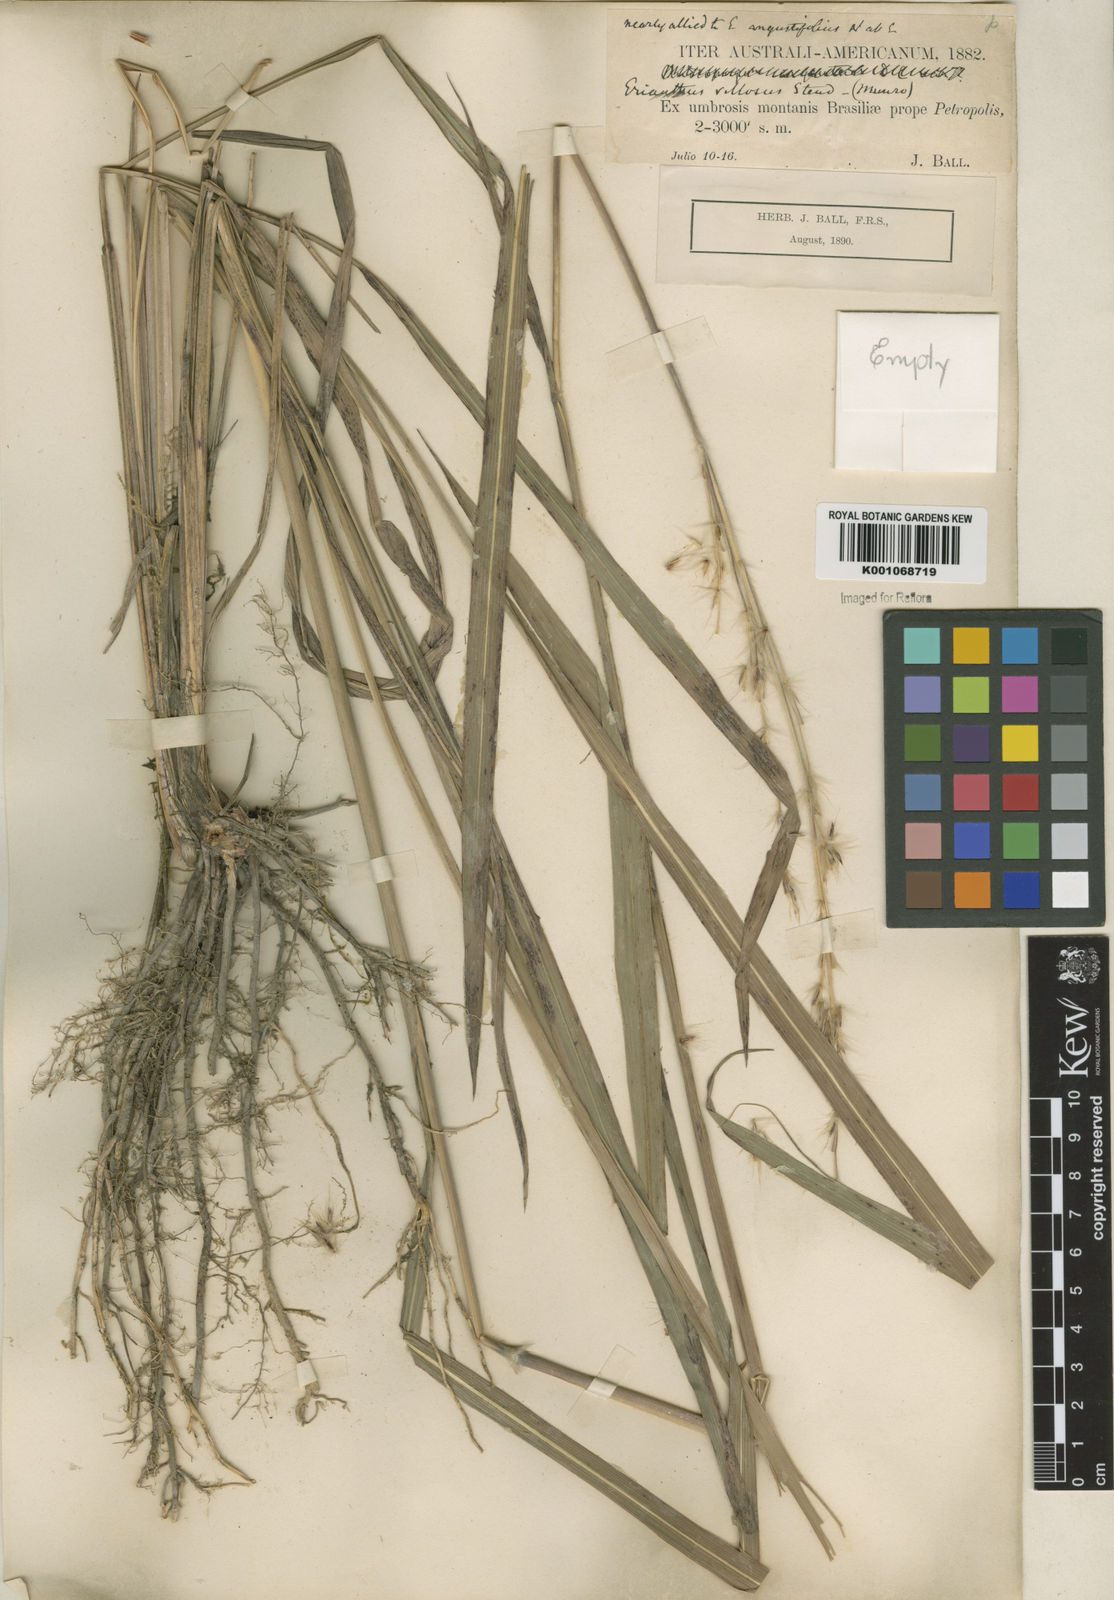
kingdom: Plantae
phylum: Tracheophyta
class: Liliopsida
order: Poales
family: Poaceae
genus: Saccharum
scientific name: Saccharum angustifolium
